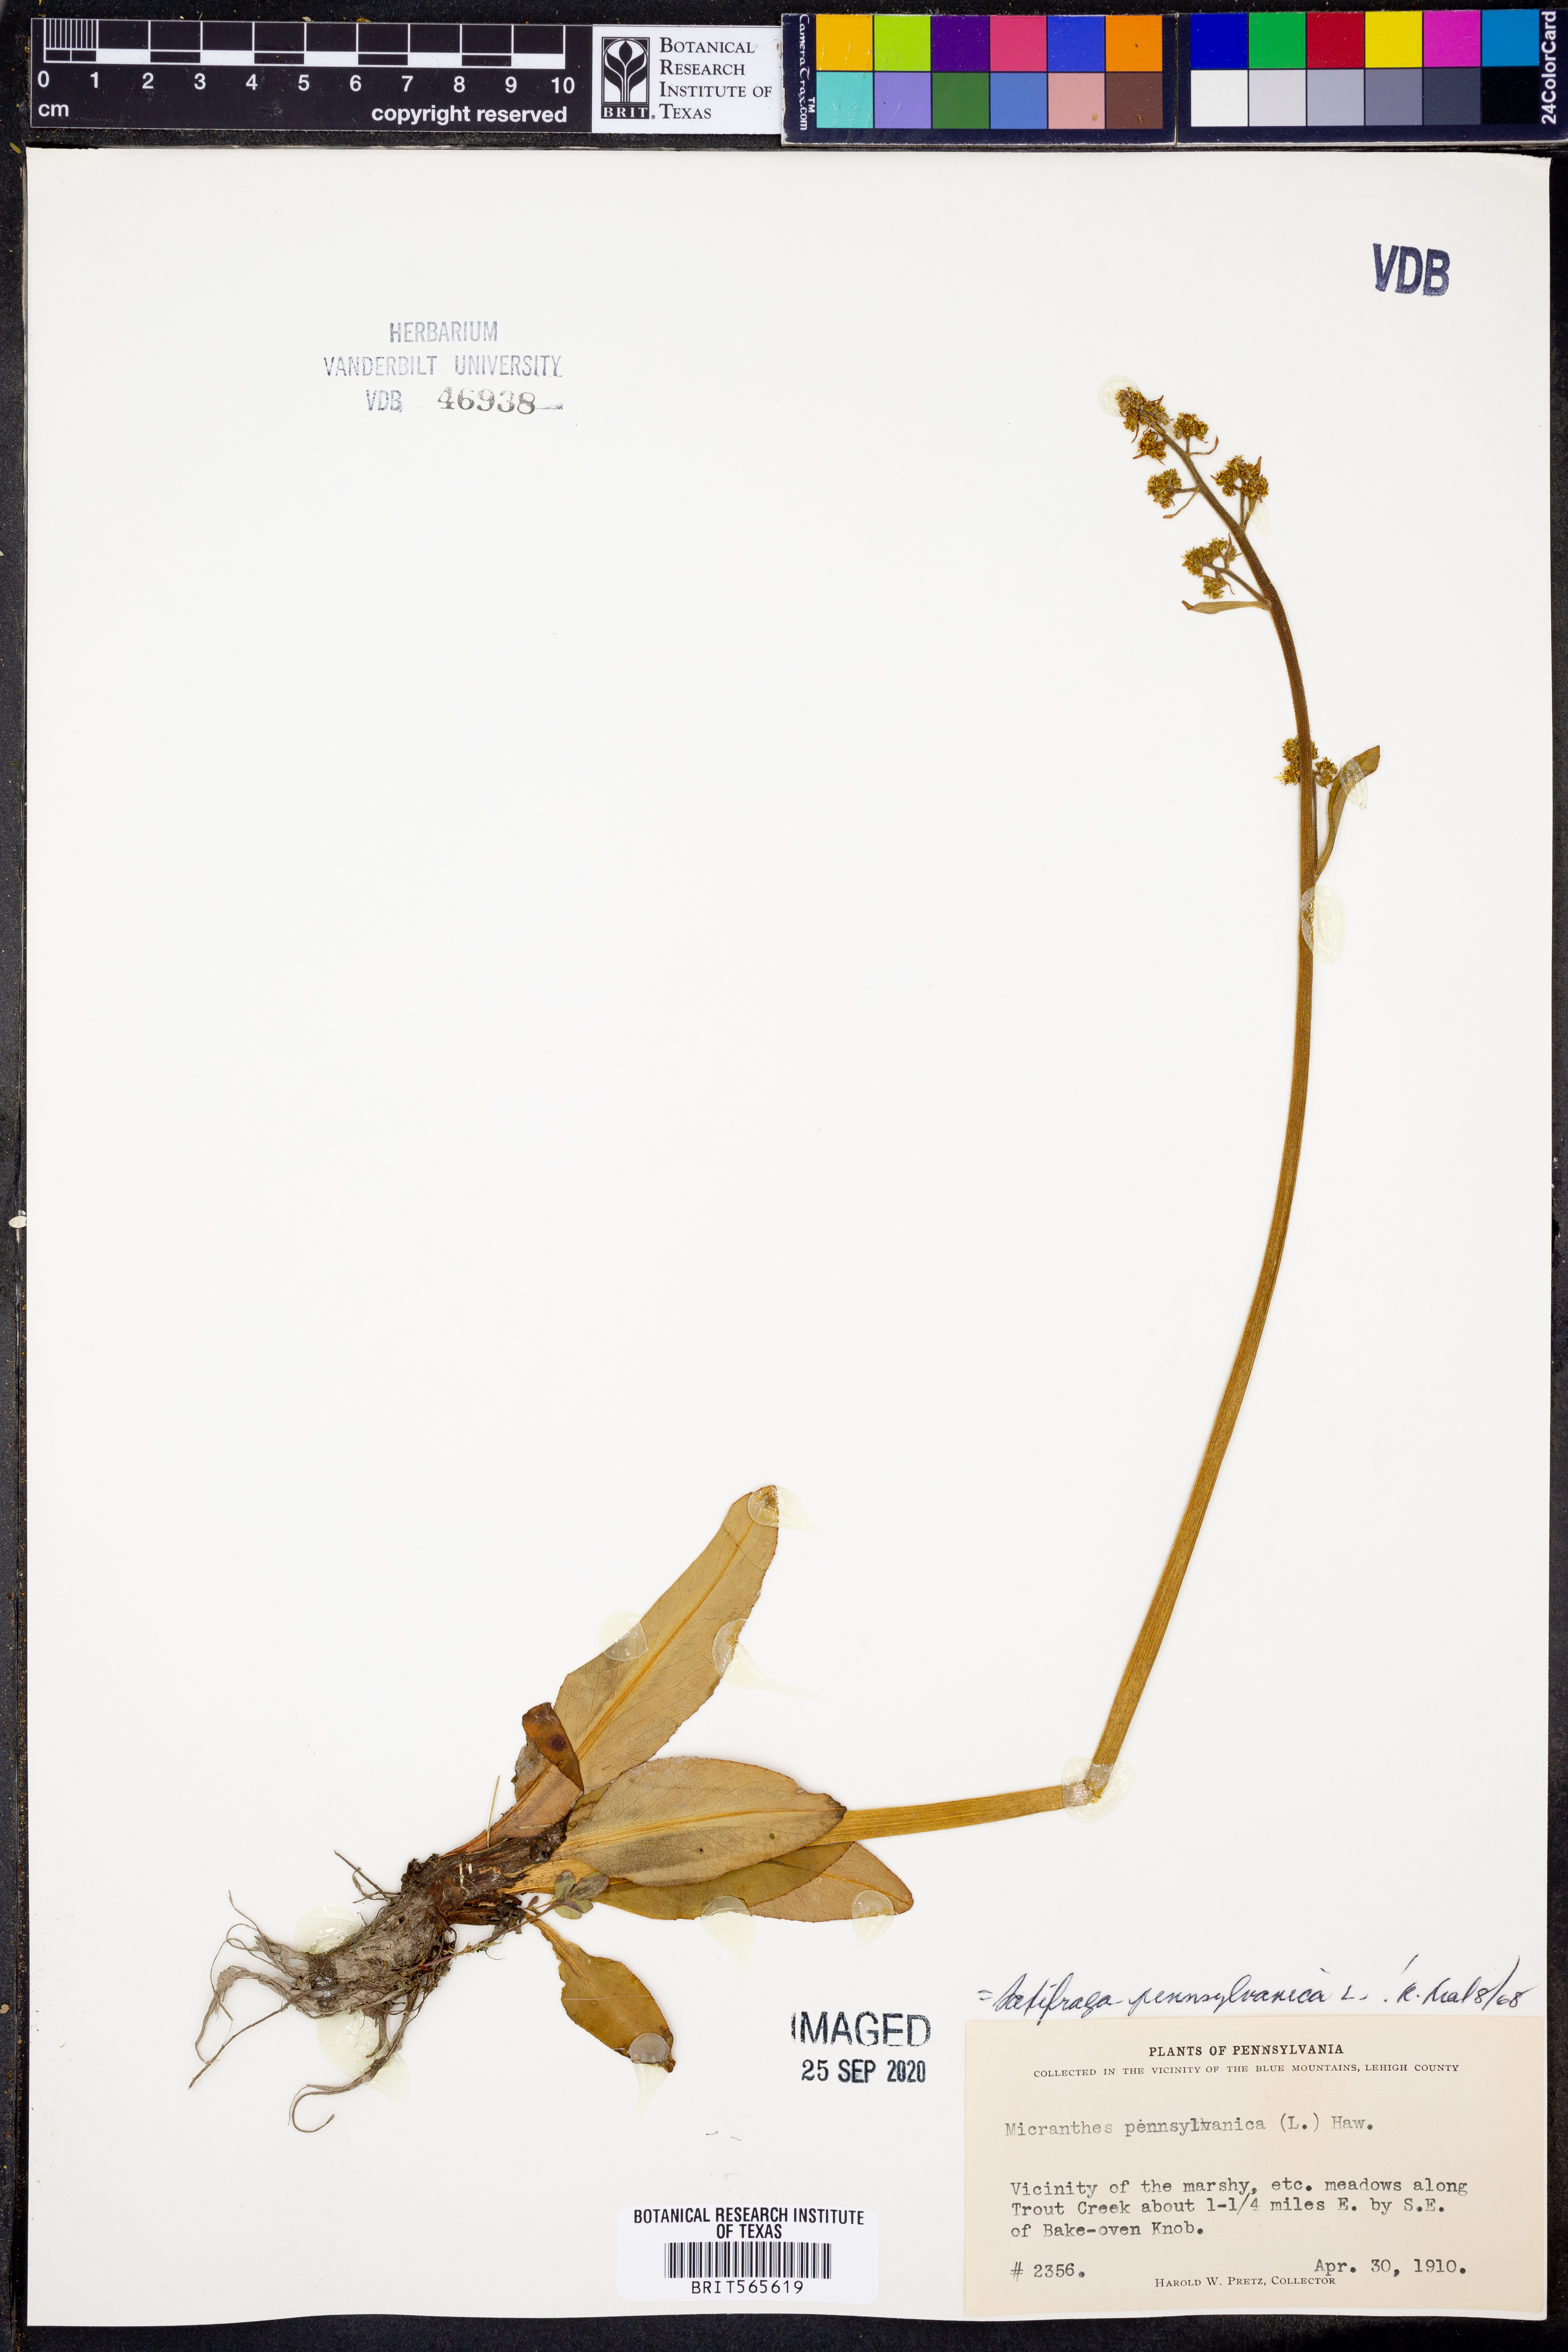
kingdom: Plantae
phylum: Tracheophyta
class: Magnoliopsida
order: Saxifragales
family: Saxifragaceae
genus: Micranthes
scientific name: Micranthes pensylvanica
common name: Marsh saxifrage
